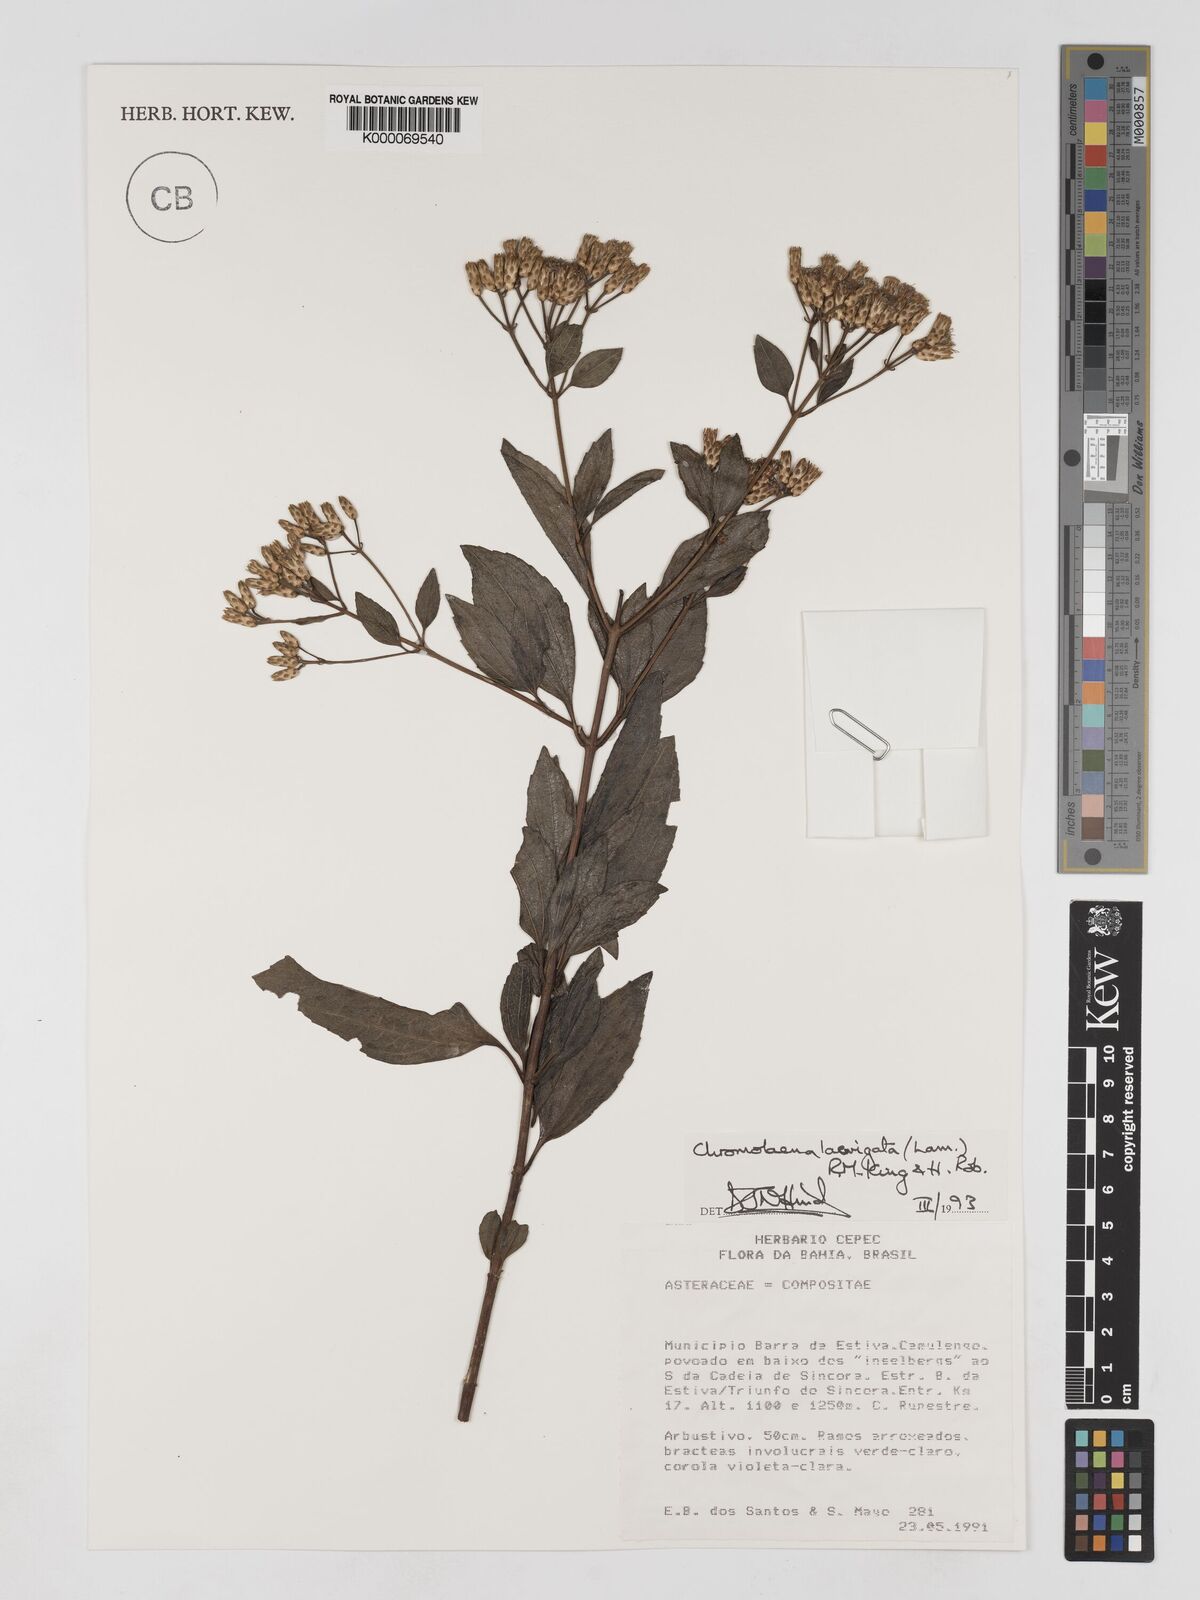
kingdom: Plantae
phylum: Tracheophyta
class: Magnoliopsida
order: Asterales
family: Asteraceae
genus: Chromolaena
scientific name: Chromolaena laevigata
